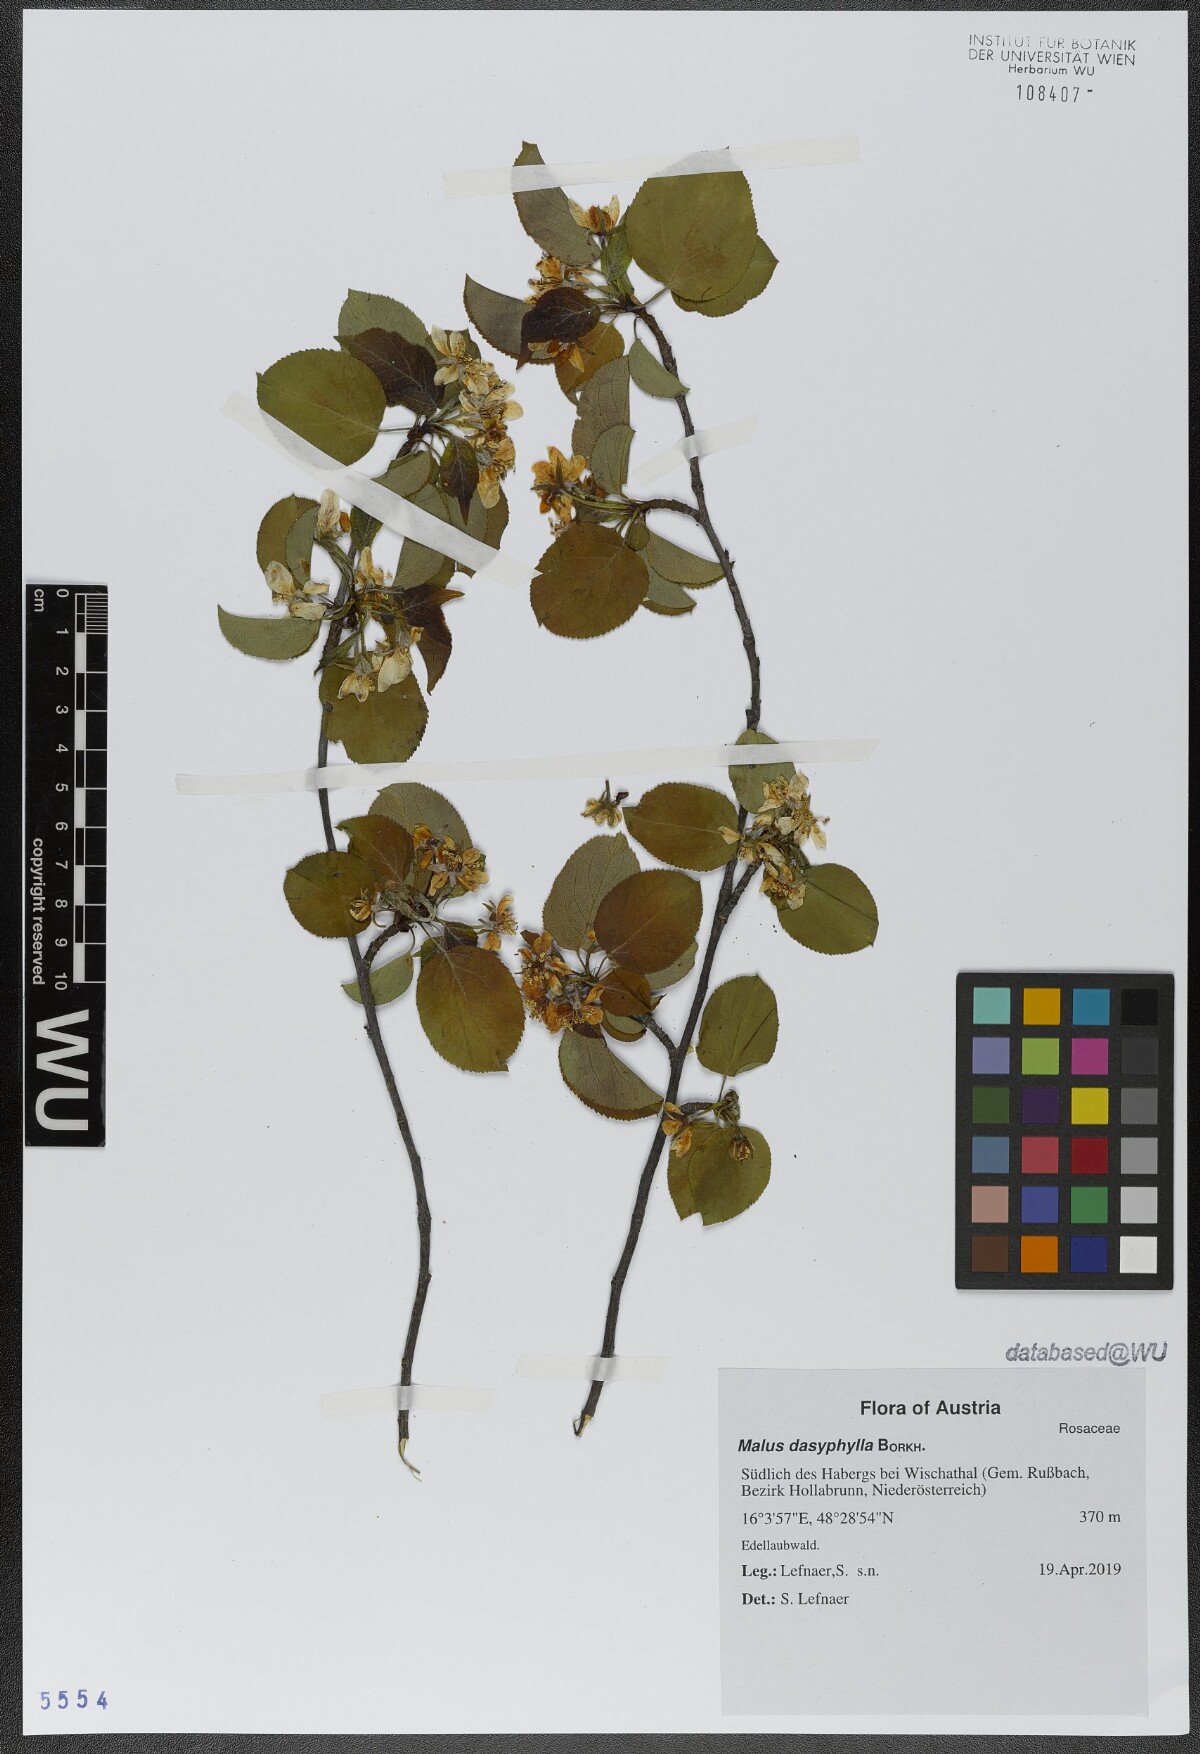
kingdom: Plantae
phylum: Tracheophyta
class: Magnoliopsida
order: Rosales
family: Rosaceae
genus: Malus
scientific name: Malus dasyphylla
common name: Paradise apple
